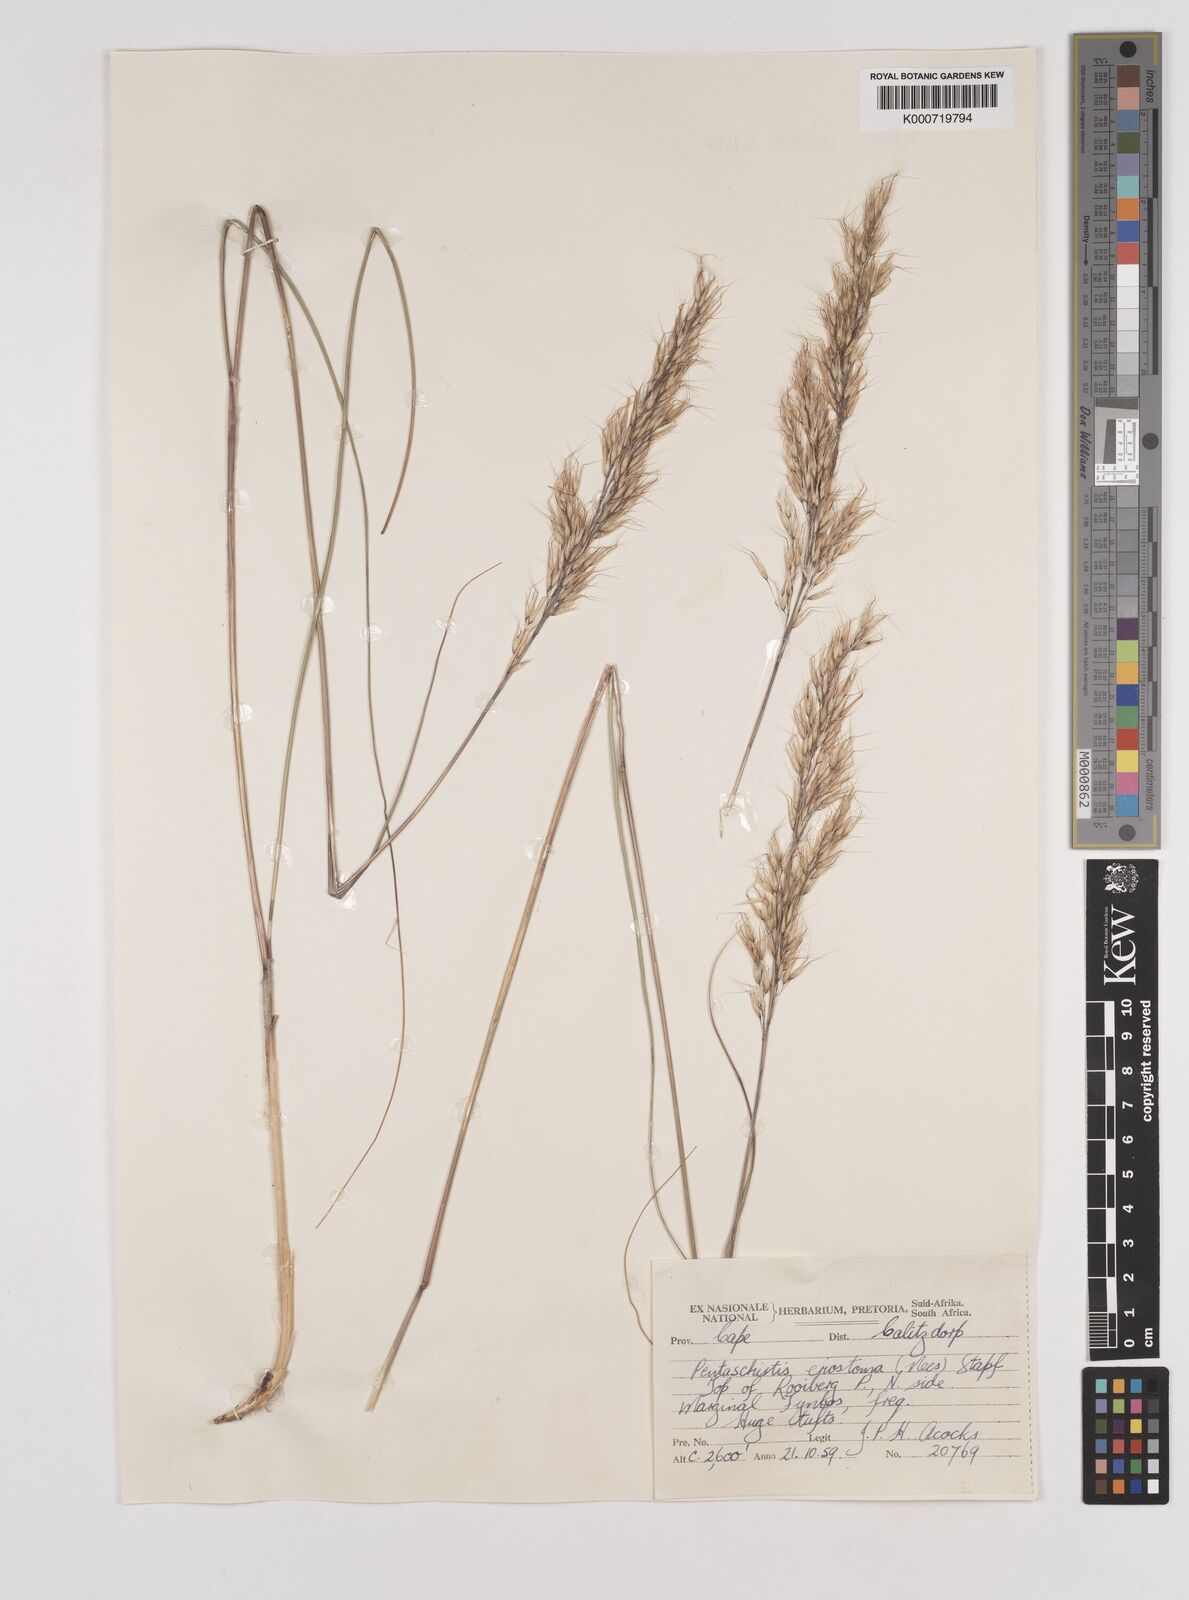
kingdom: Plantae
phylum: Tracheophyta
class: Liliopsida
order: Poales
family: Poaceae
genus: Pentameris
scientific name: Pentameris eriostoma
